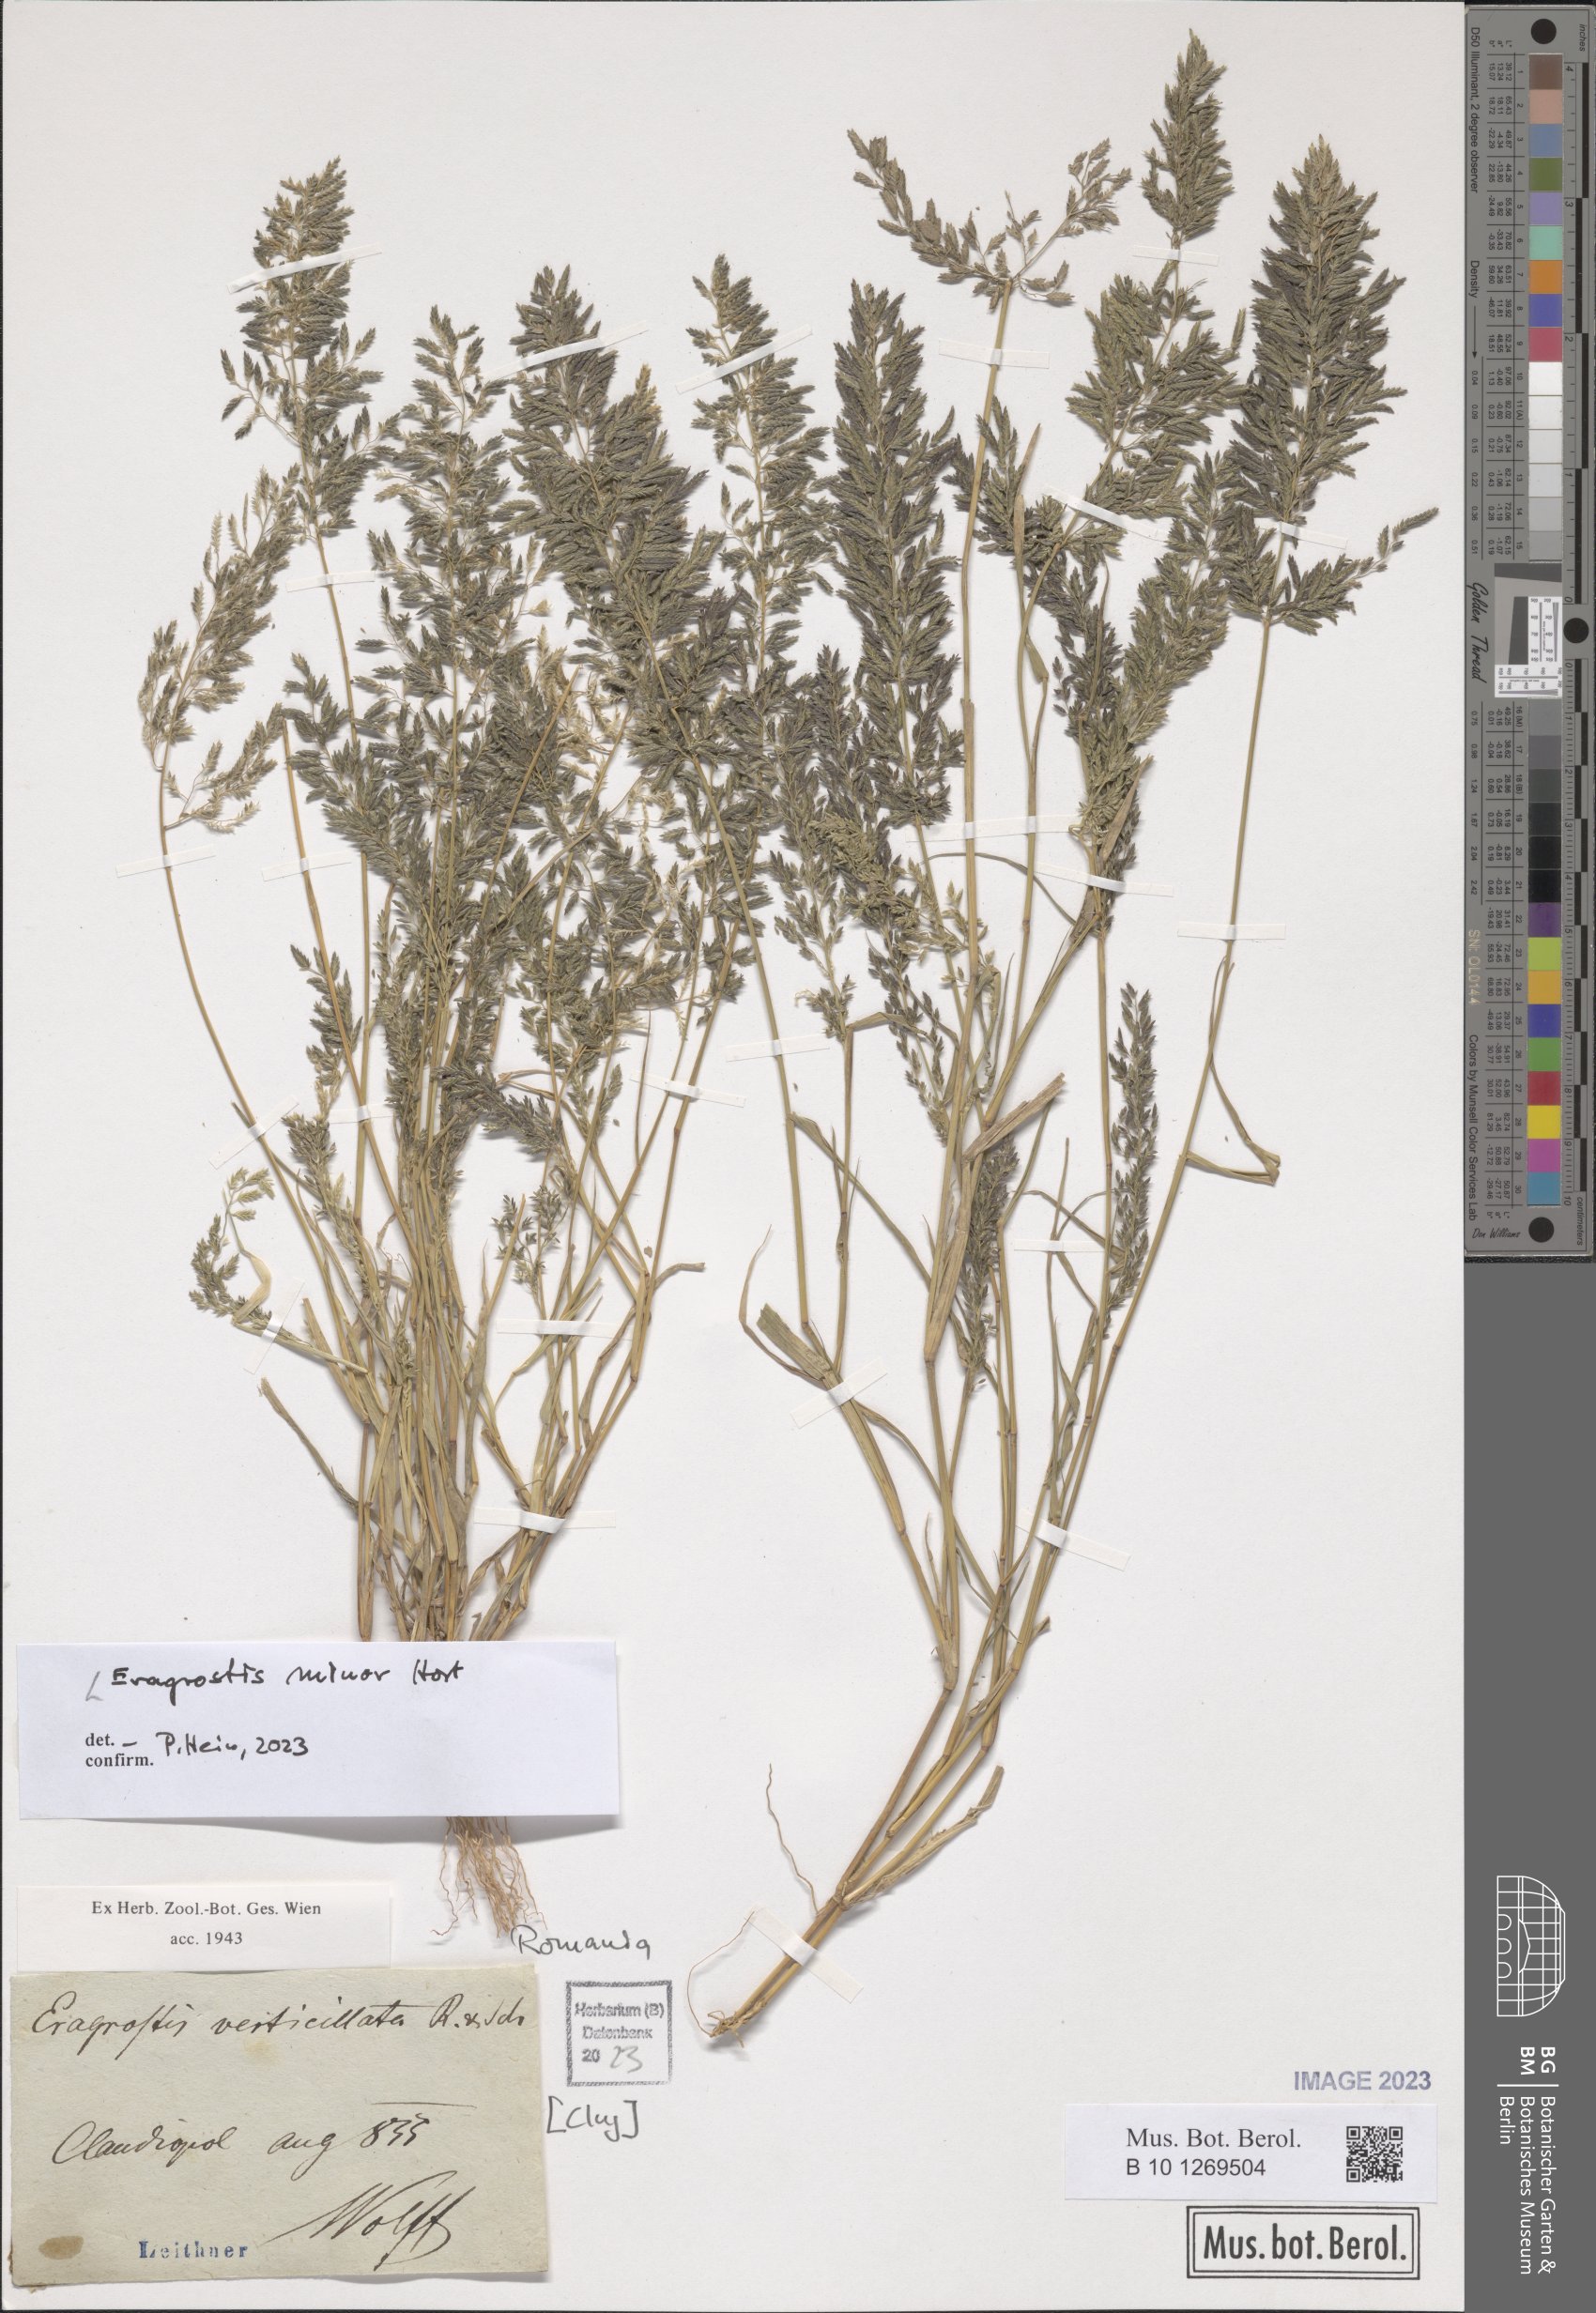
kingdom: Plantae
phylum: Tracheophyta
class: Liliopsida
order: Poales
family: Poaceae
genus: Eragrostis
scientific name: Eragrostis minor
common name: Small love-grass
